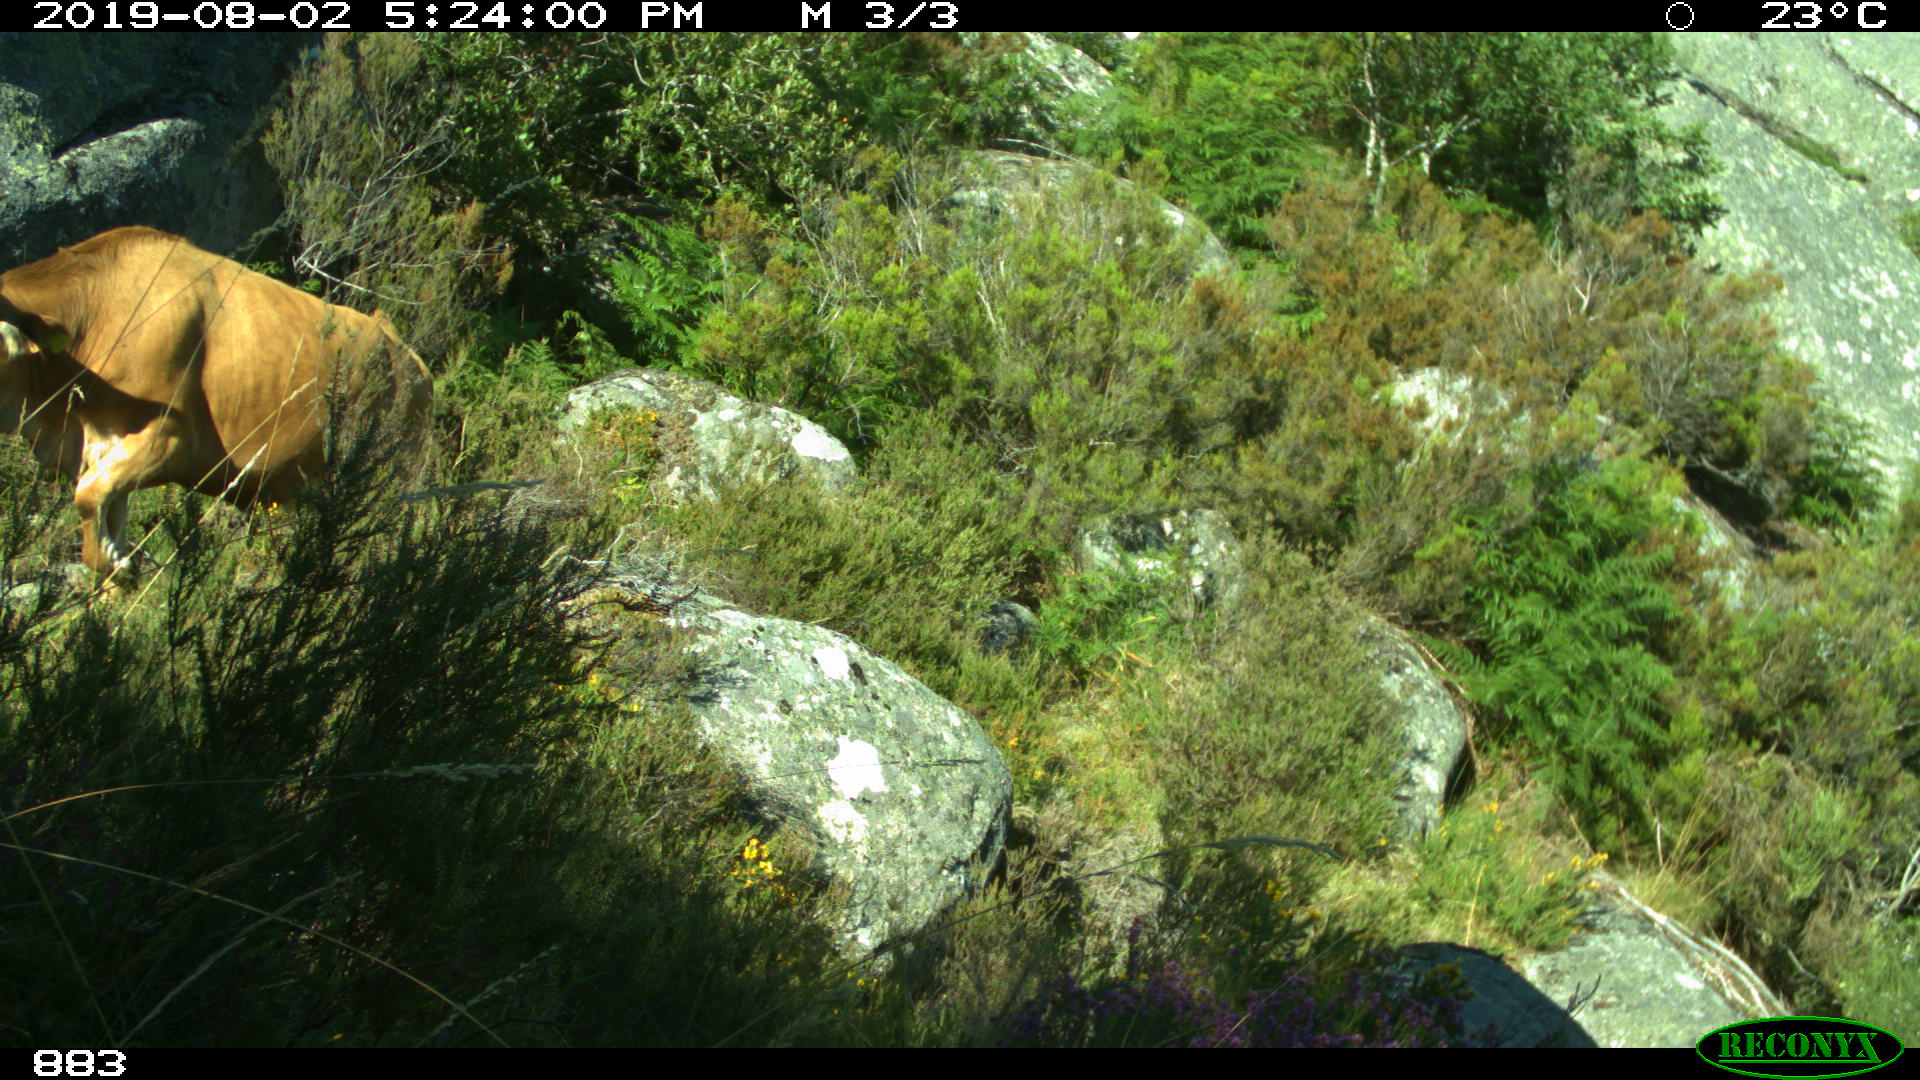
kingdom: Animalia
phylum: Chordata
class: Mammalia
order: Artiodactyla
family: Bovidae
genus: Bos
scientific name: Bos taurus
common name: Domesticated cattle
